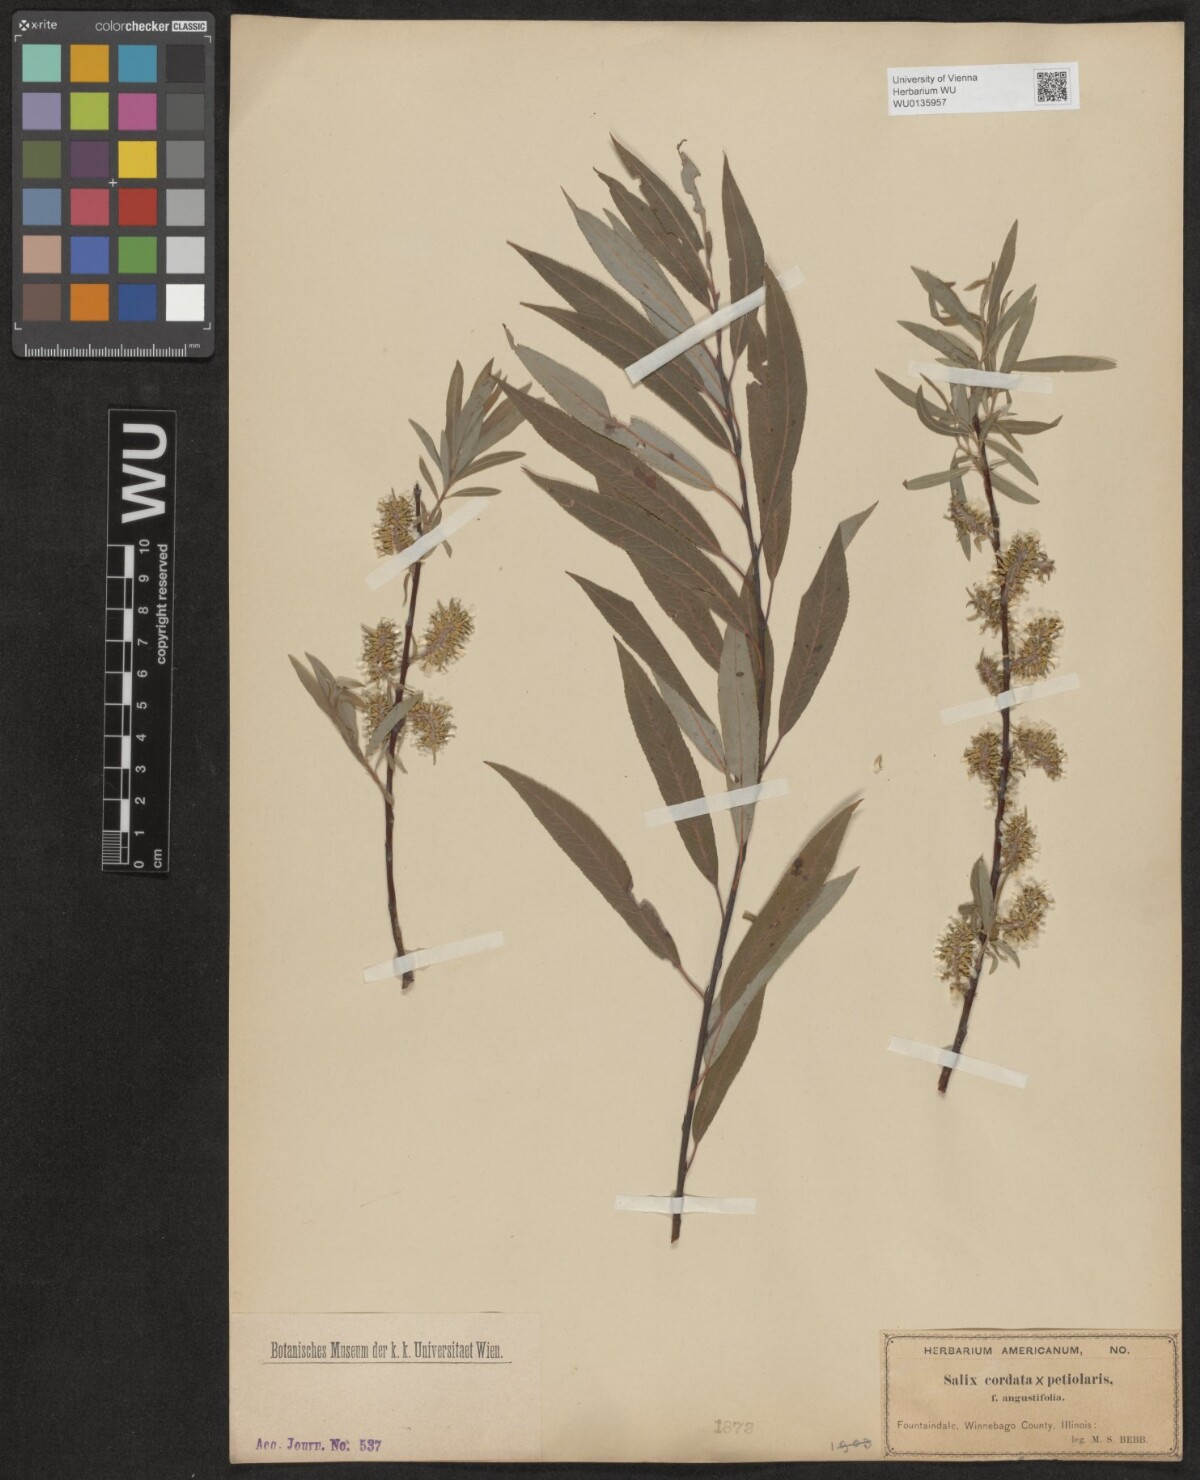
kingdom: Plantae
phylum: Tracheophyta
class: Magnoliopsida
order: Malpighiales
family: Salicaceae
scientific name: Salicaceae
